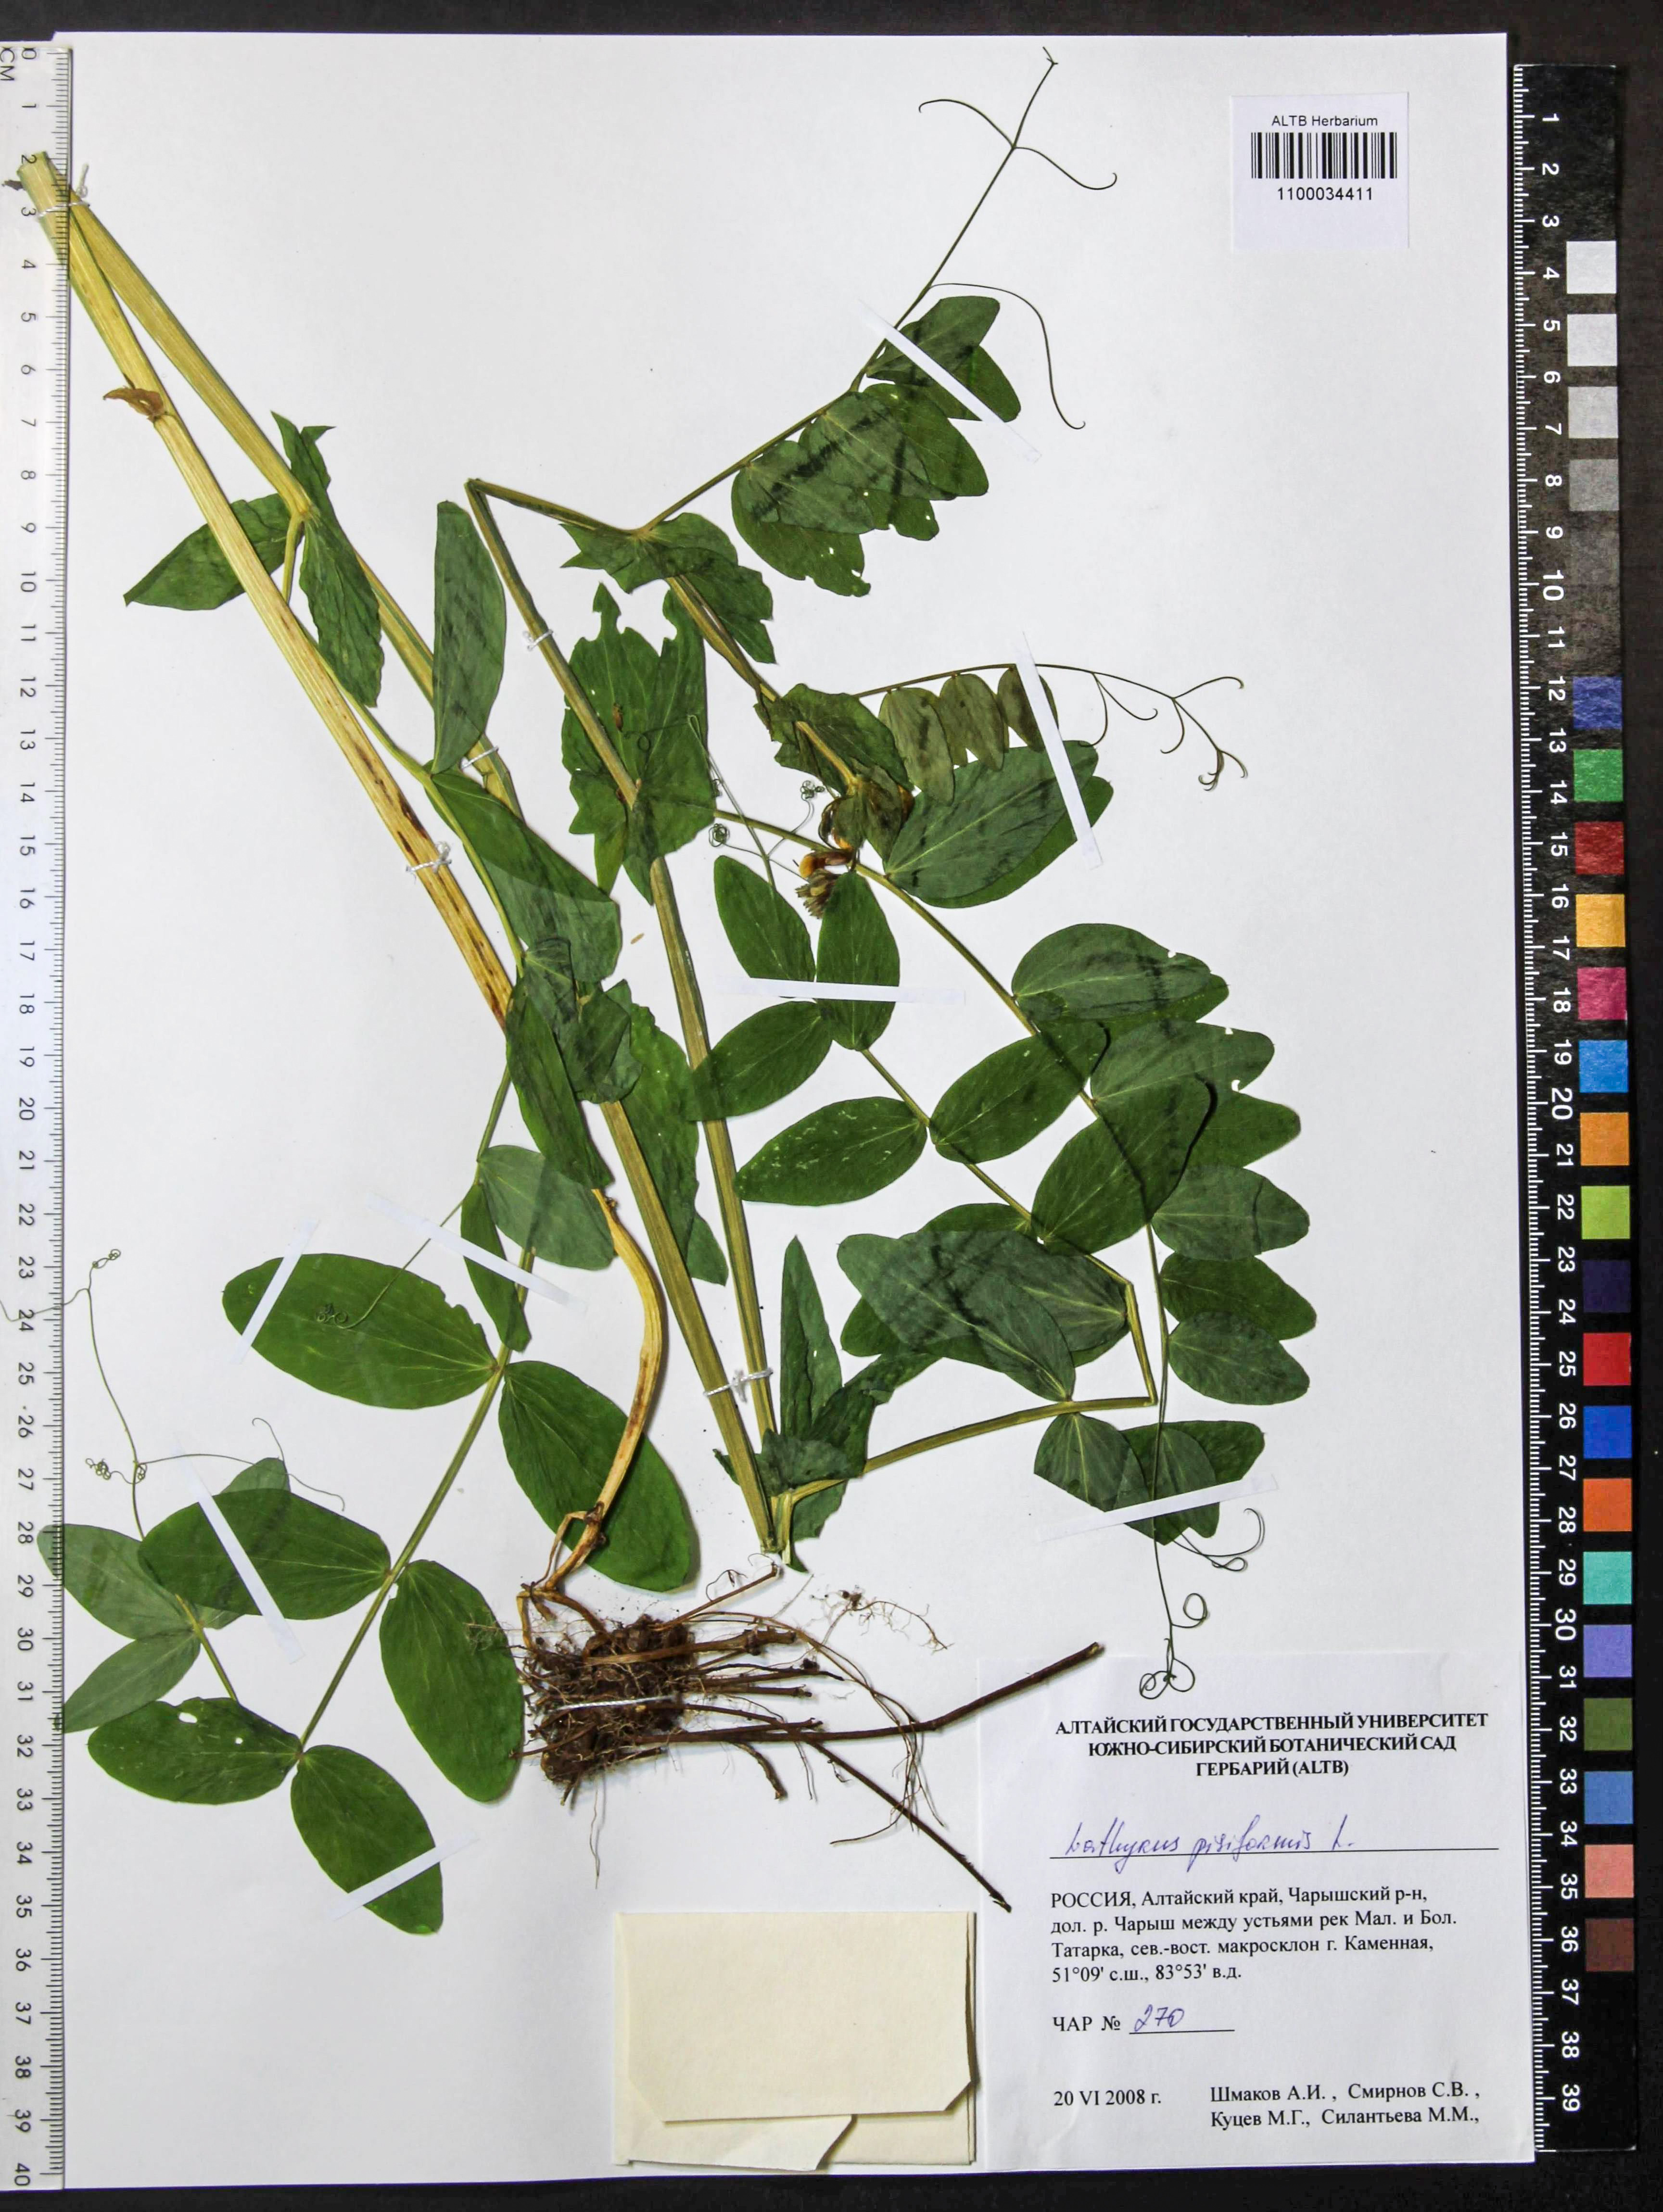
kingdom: Plantae
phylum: Tracheophyta
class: Magnoliopsida
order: Fabales
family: Fabaceae
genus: Lathyrus
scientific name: Lathyrus pisiformis
